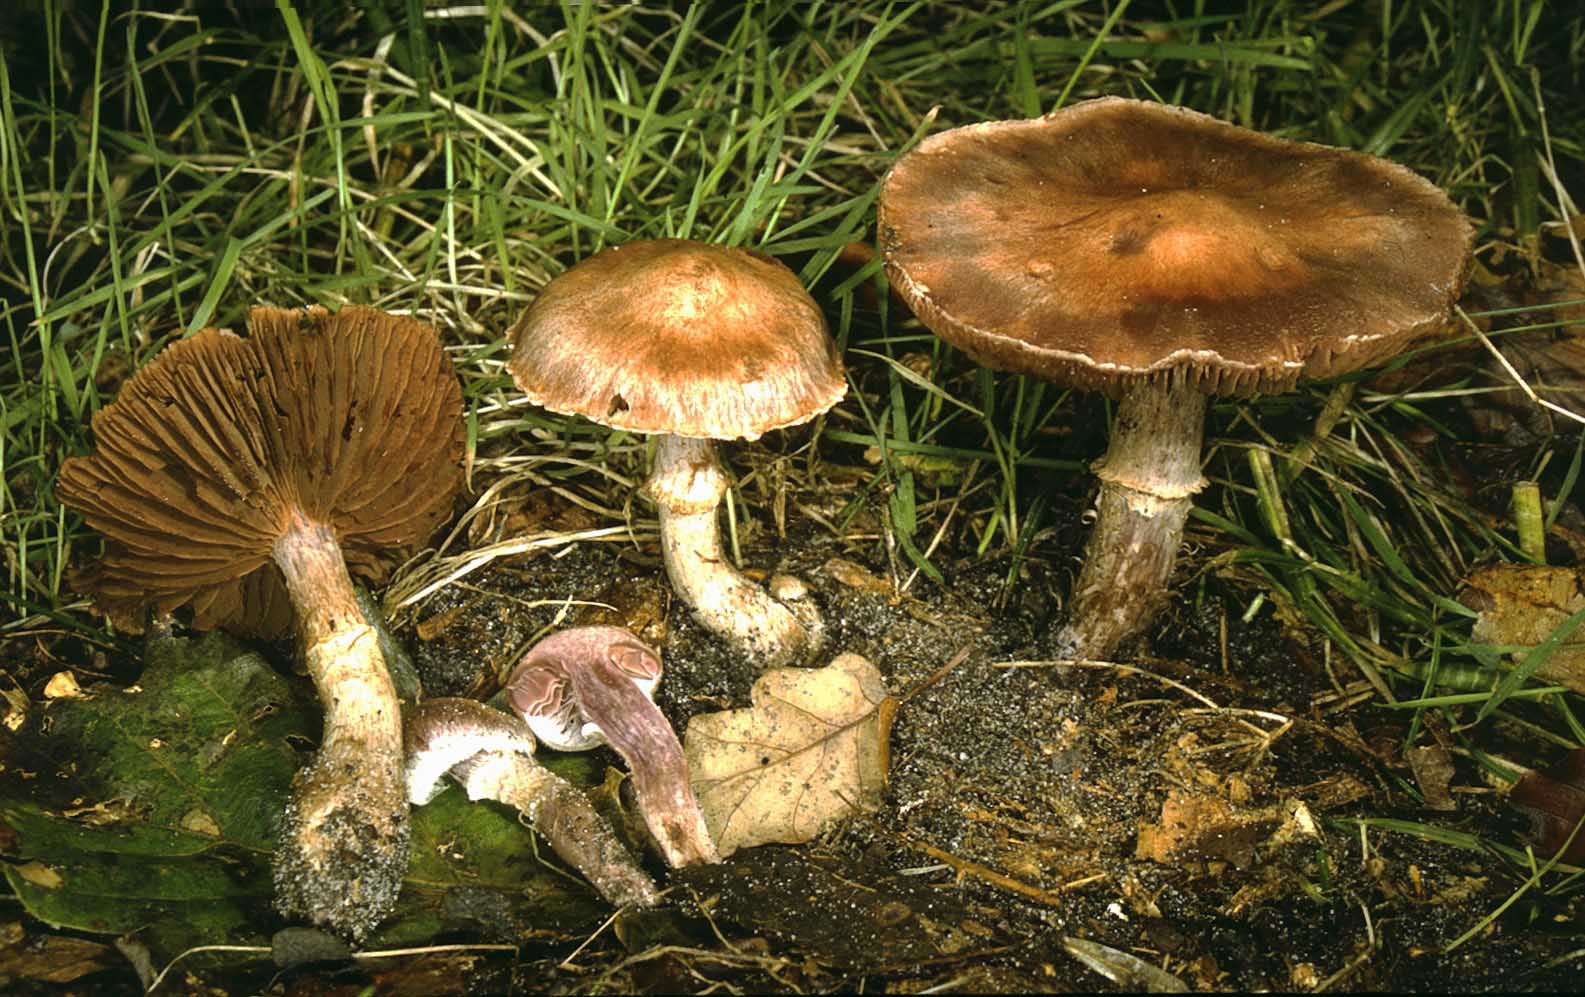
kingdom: Fungi
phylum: Basidiomycota
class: Agaricomycetes
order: Agaricales
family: Cortinariaceae
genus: Cortinarius
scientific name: Cortinarius torvus
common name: champignonagtig slørhat
